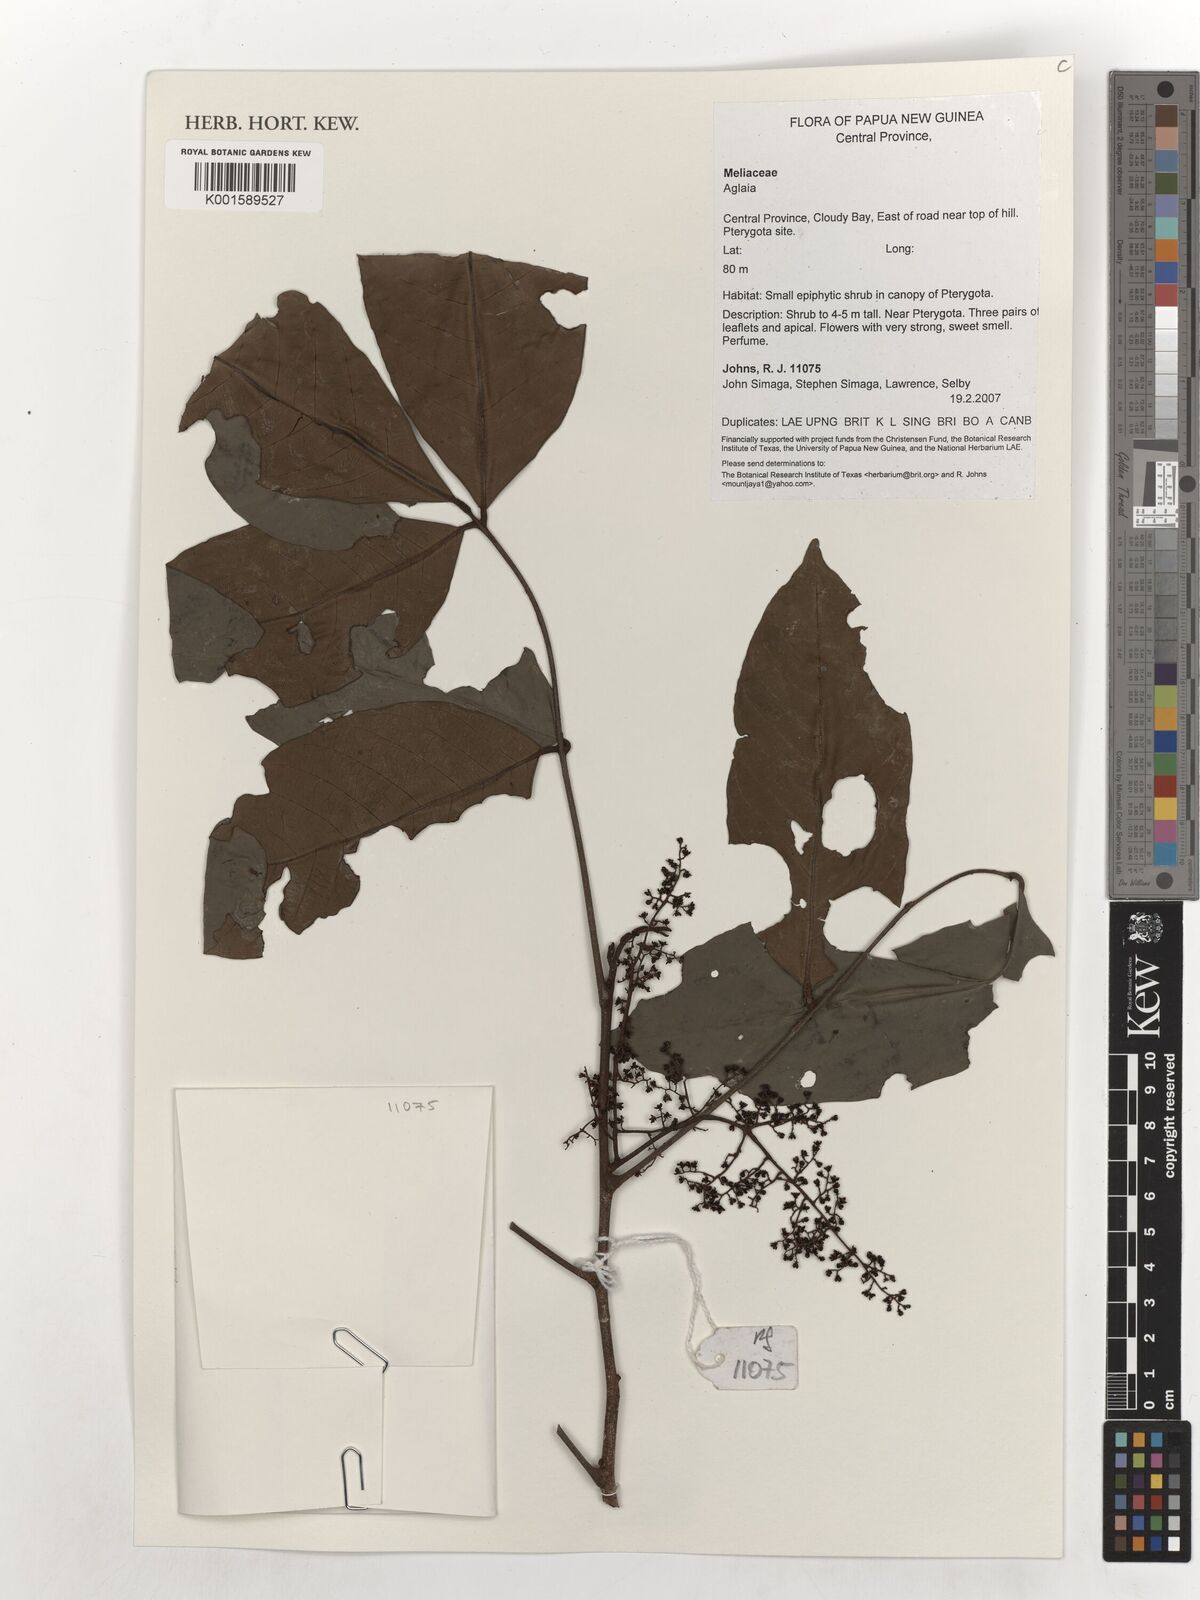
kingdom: Plantae
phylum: Tracheophyta
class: Magnoliopsida
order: Sapindales
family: Meliaceae
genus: Aglaia
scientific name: Aglaia
